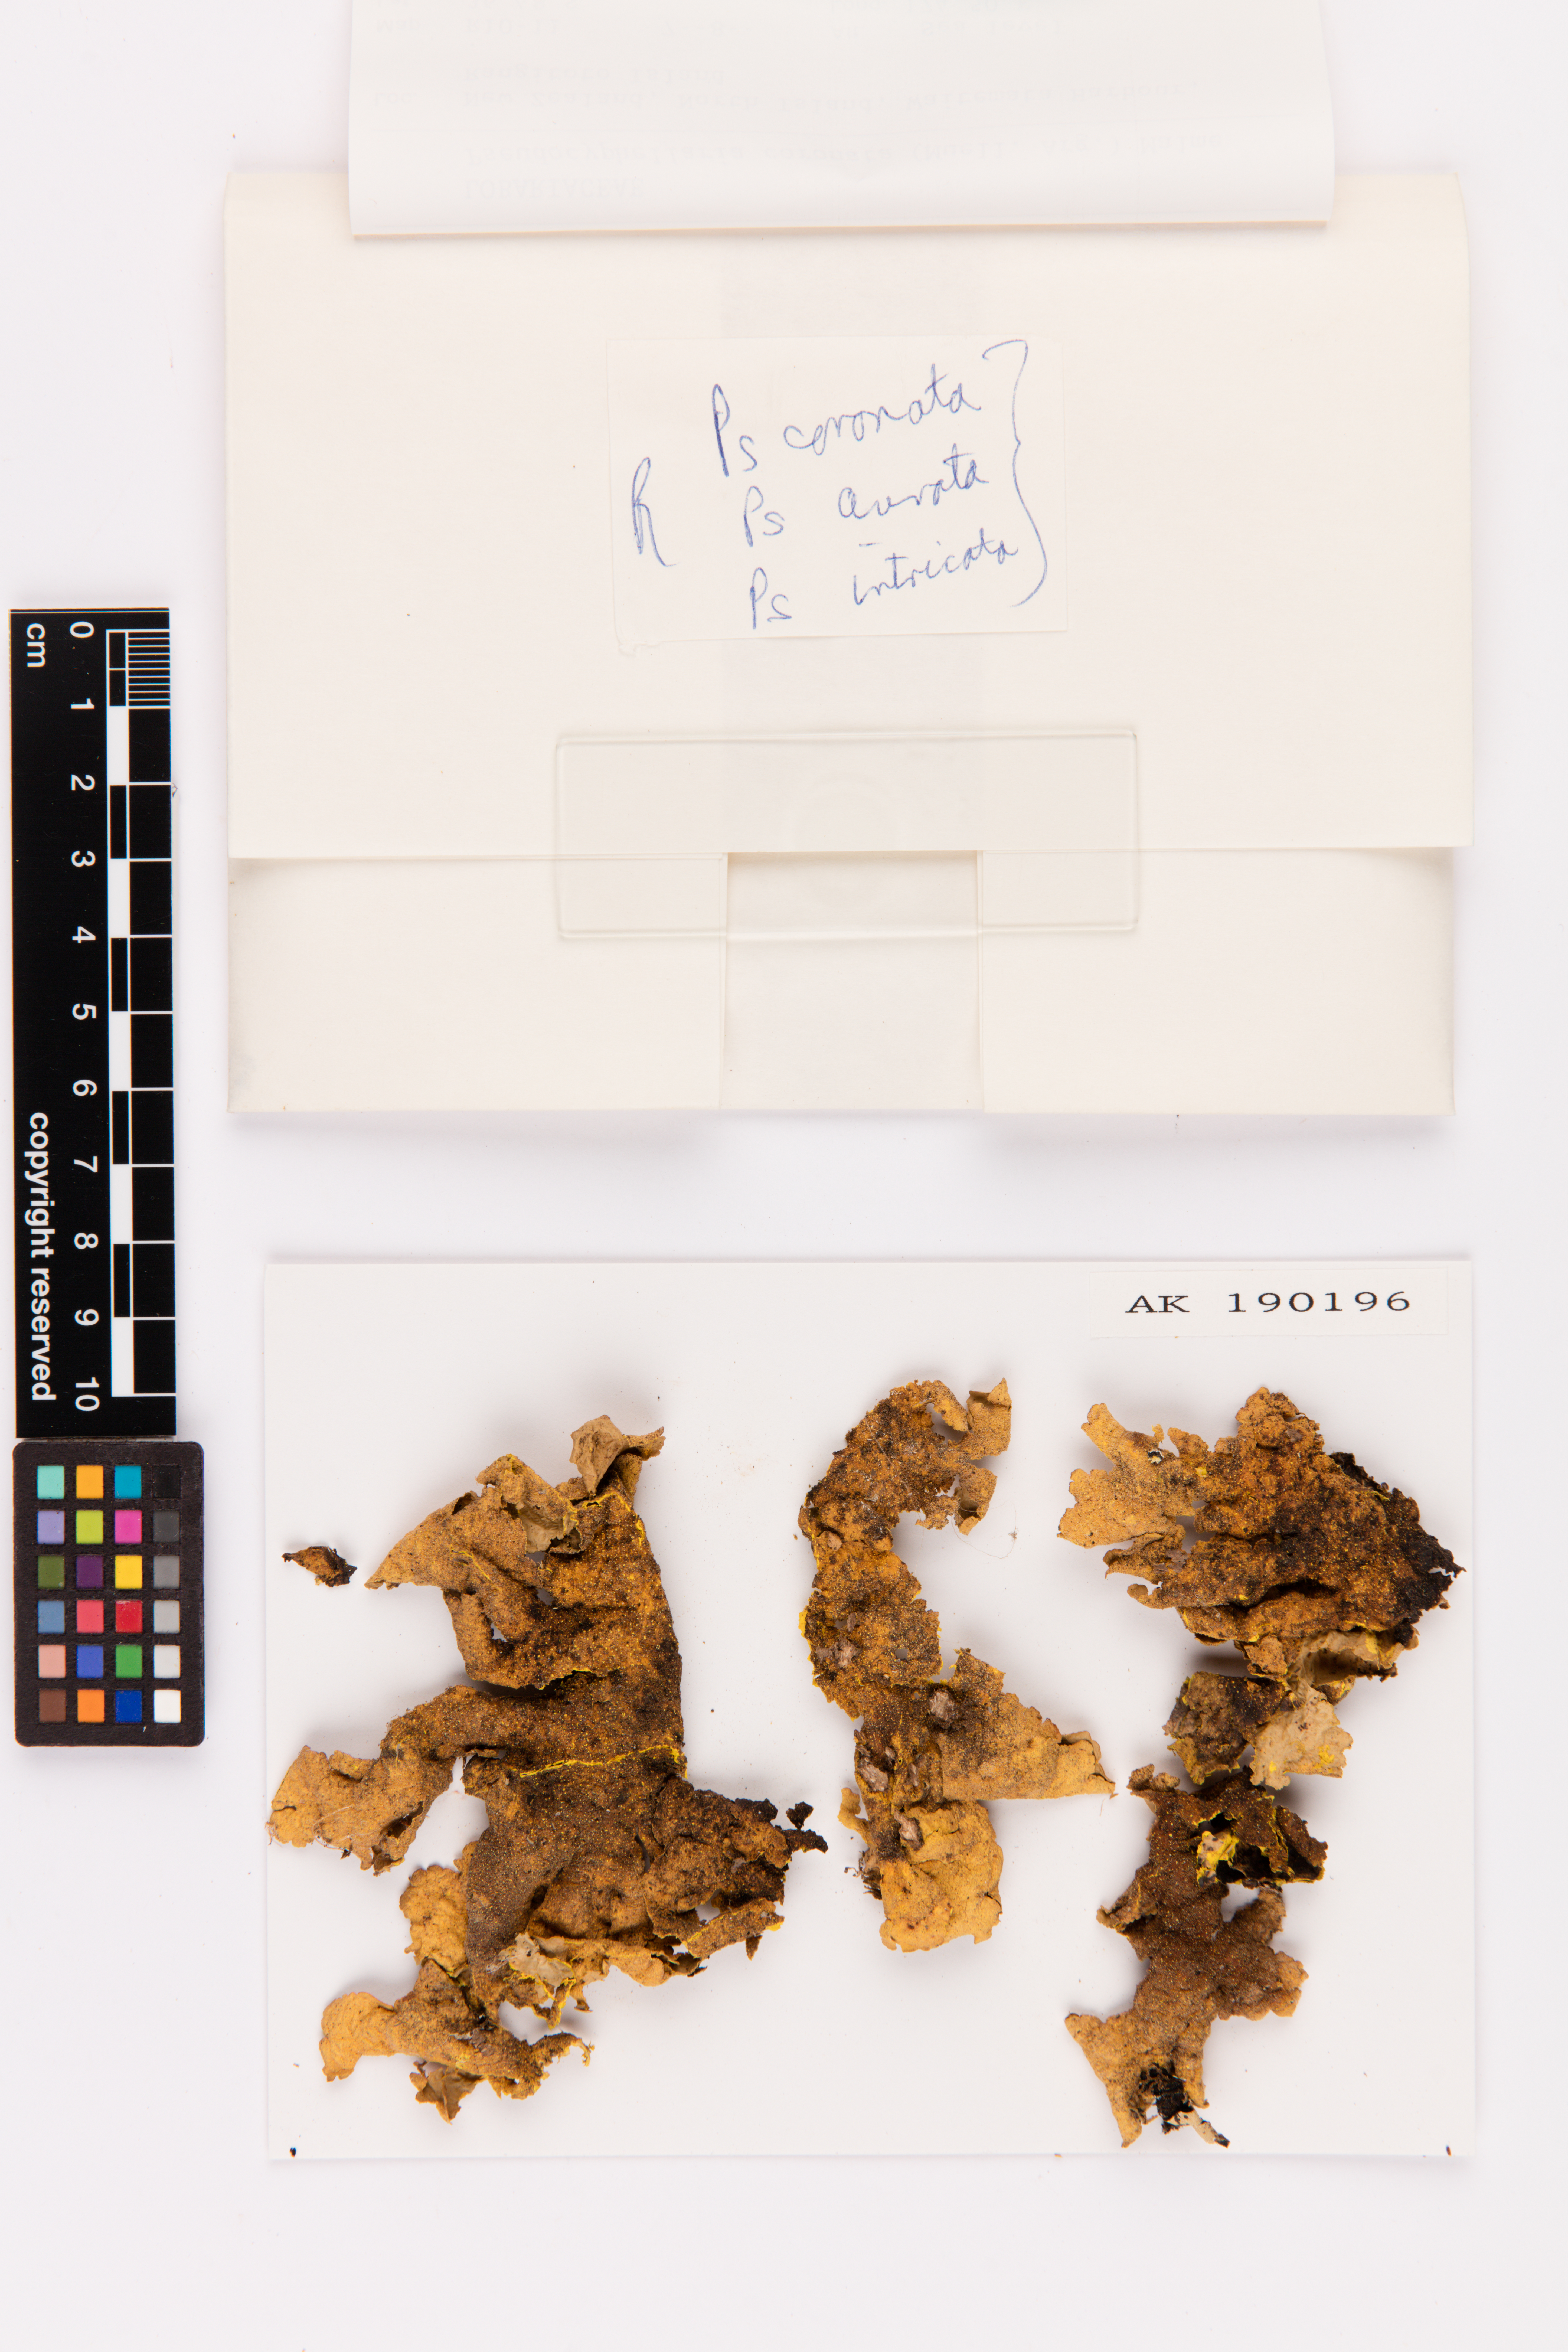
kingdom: Fungi
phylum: Ascomycota
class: Lecanoromycetes
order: Peltigerales
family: Lobariaceae
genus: Yarrumia
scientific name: Yarrumia coronata
